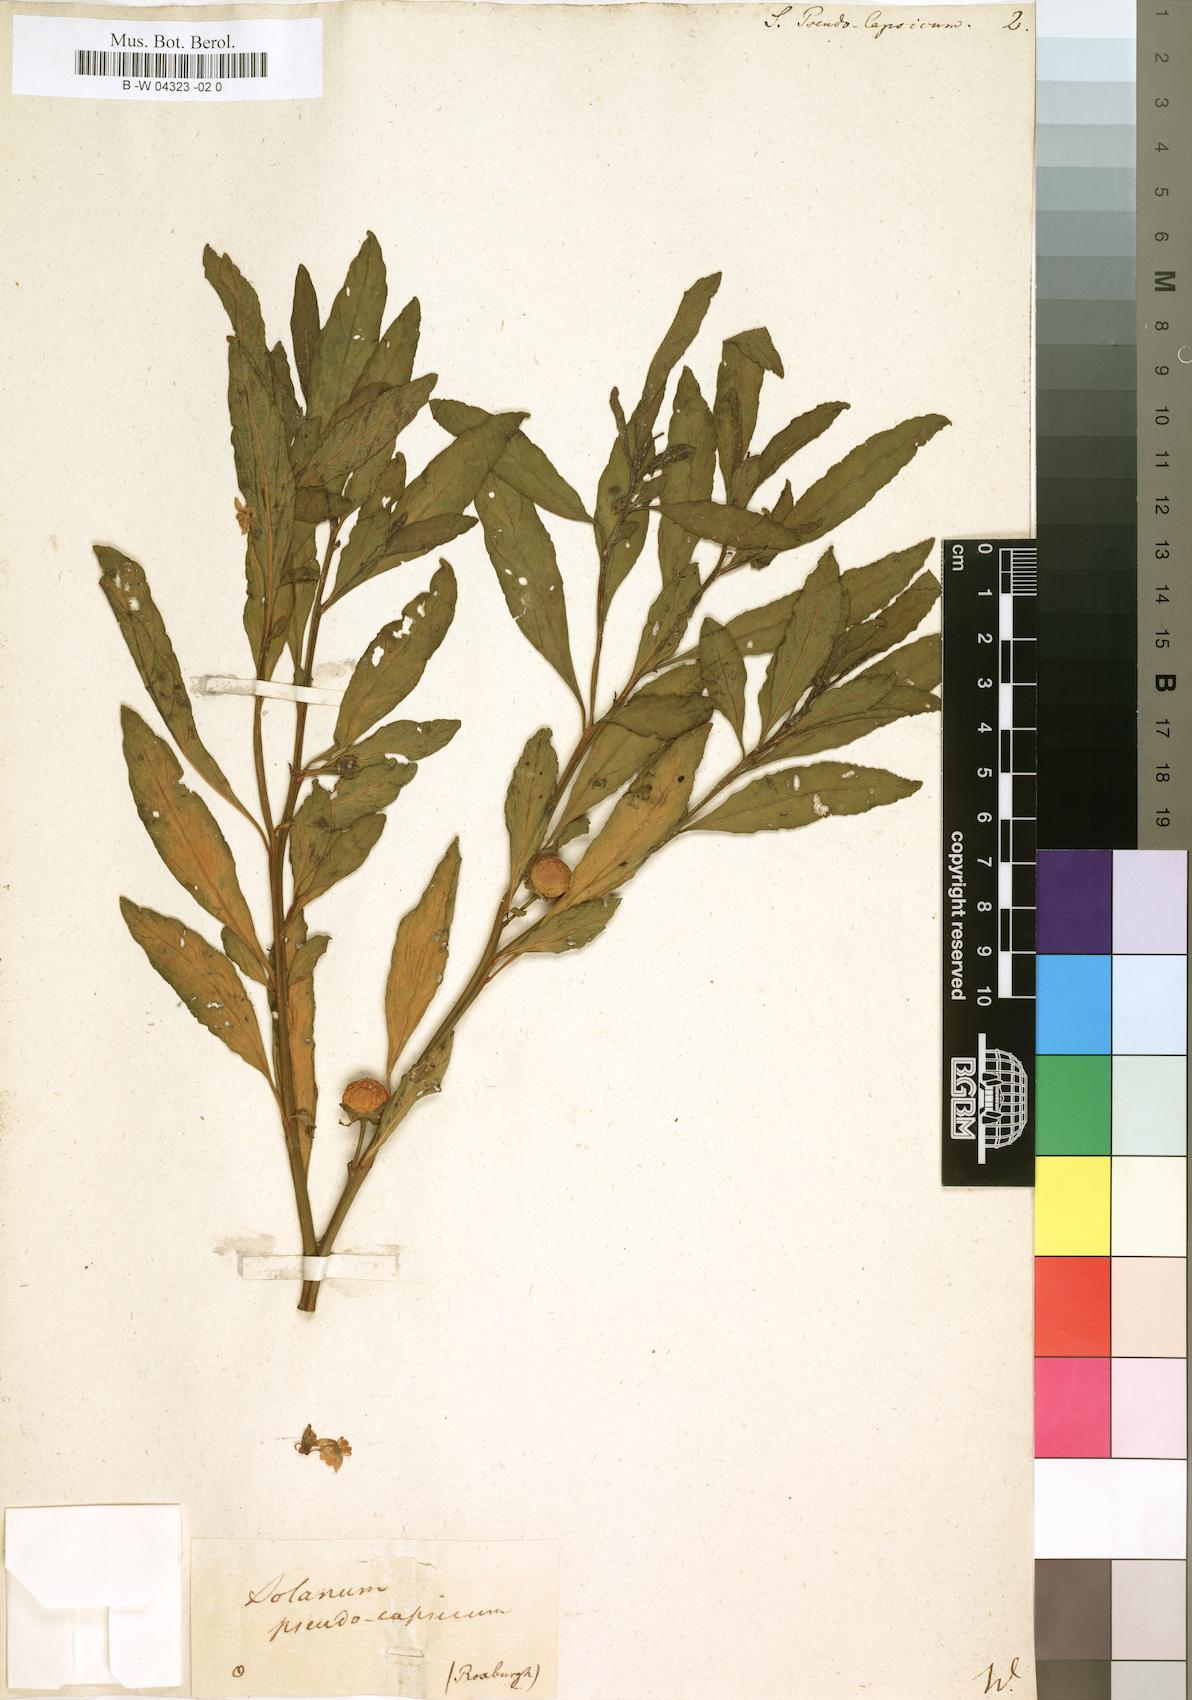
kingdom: Plantae
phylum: Tracheophyta
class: Magnoliopsida
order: Solanales
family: Solanaceae
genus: Solanum
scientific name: Solanum pseudocapsicum
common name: Jerusalem cherry
